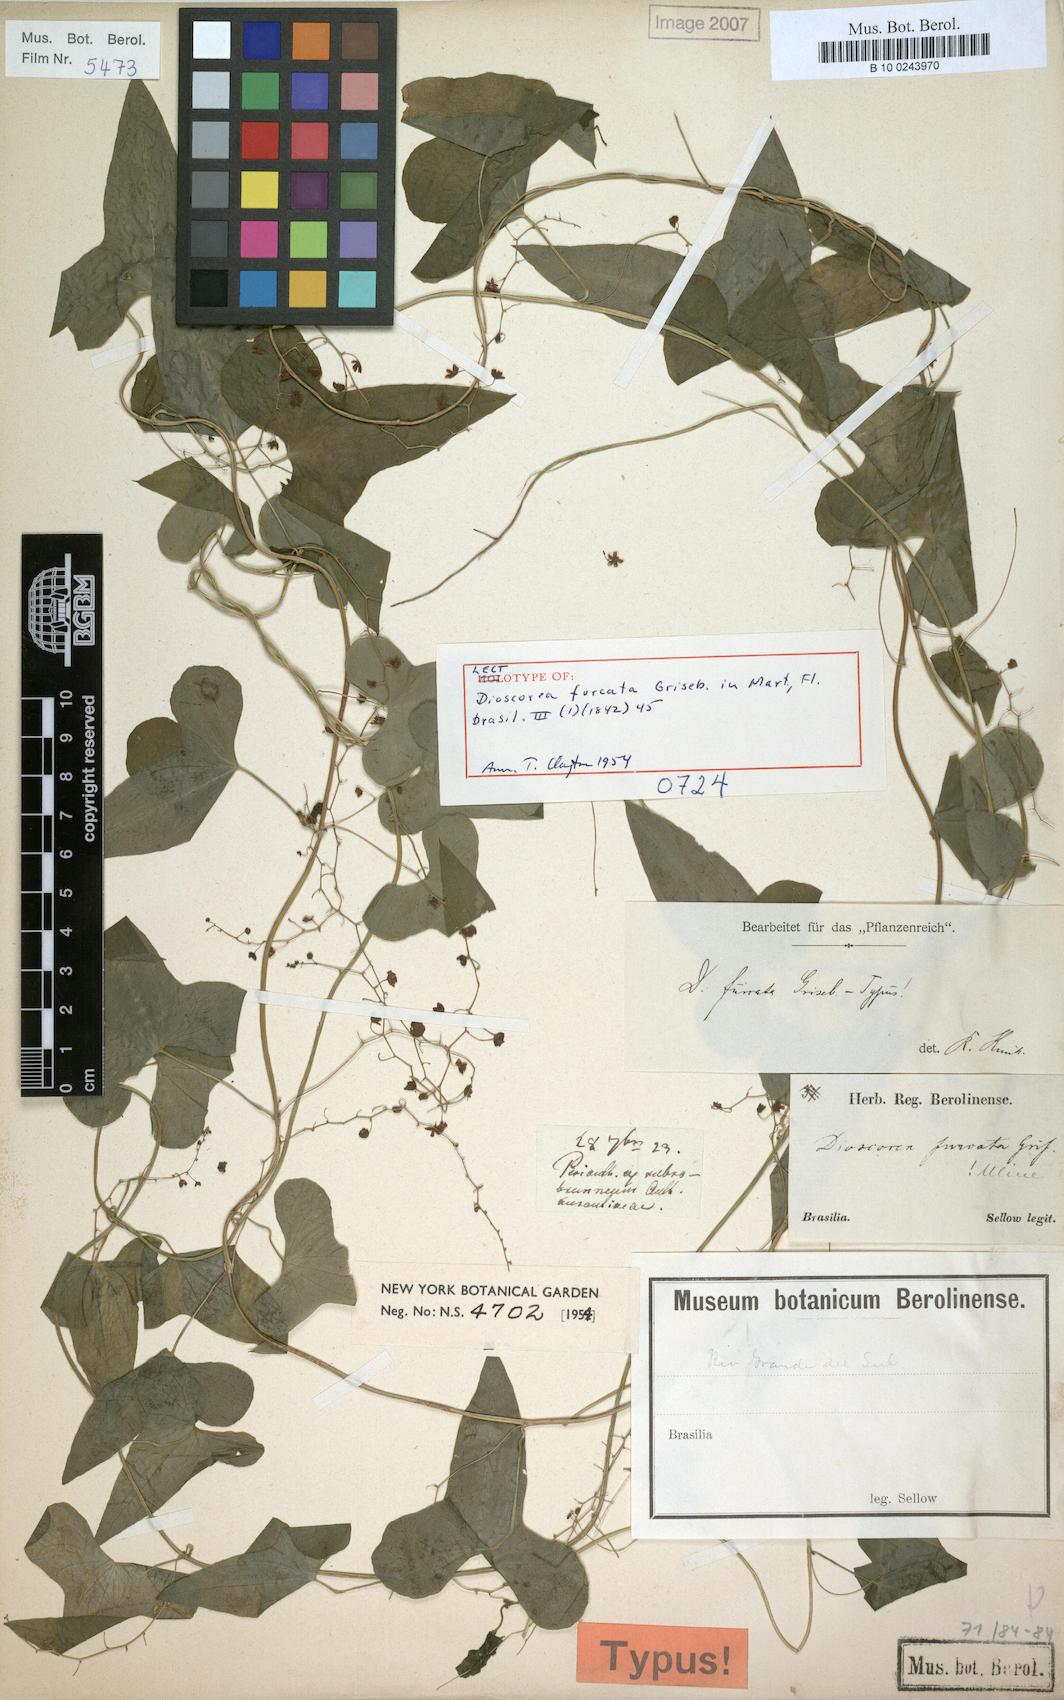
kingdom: Plantae
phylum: Tracheophyta
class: Liliopsida
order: Dioscoreales
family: Dioscoreaceae
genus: Dioscorea
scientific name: Dioscorea furcata
